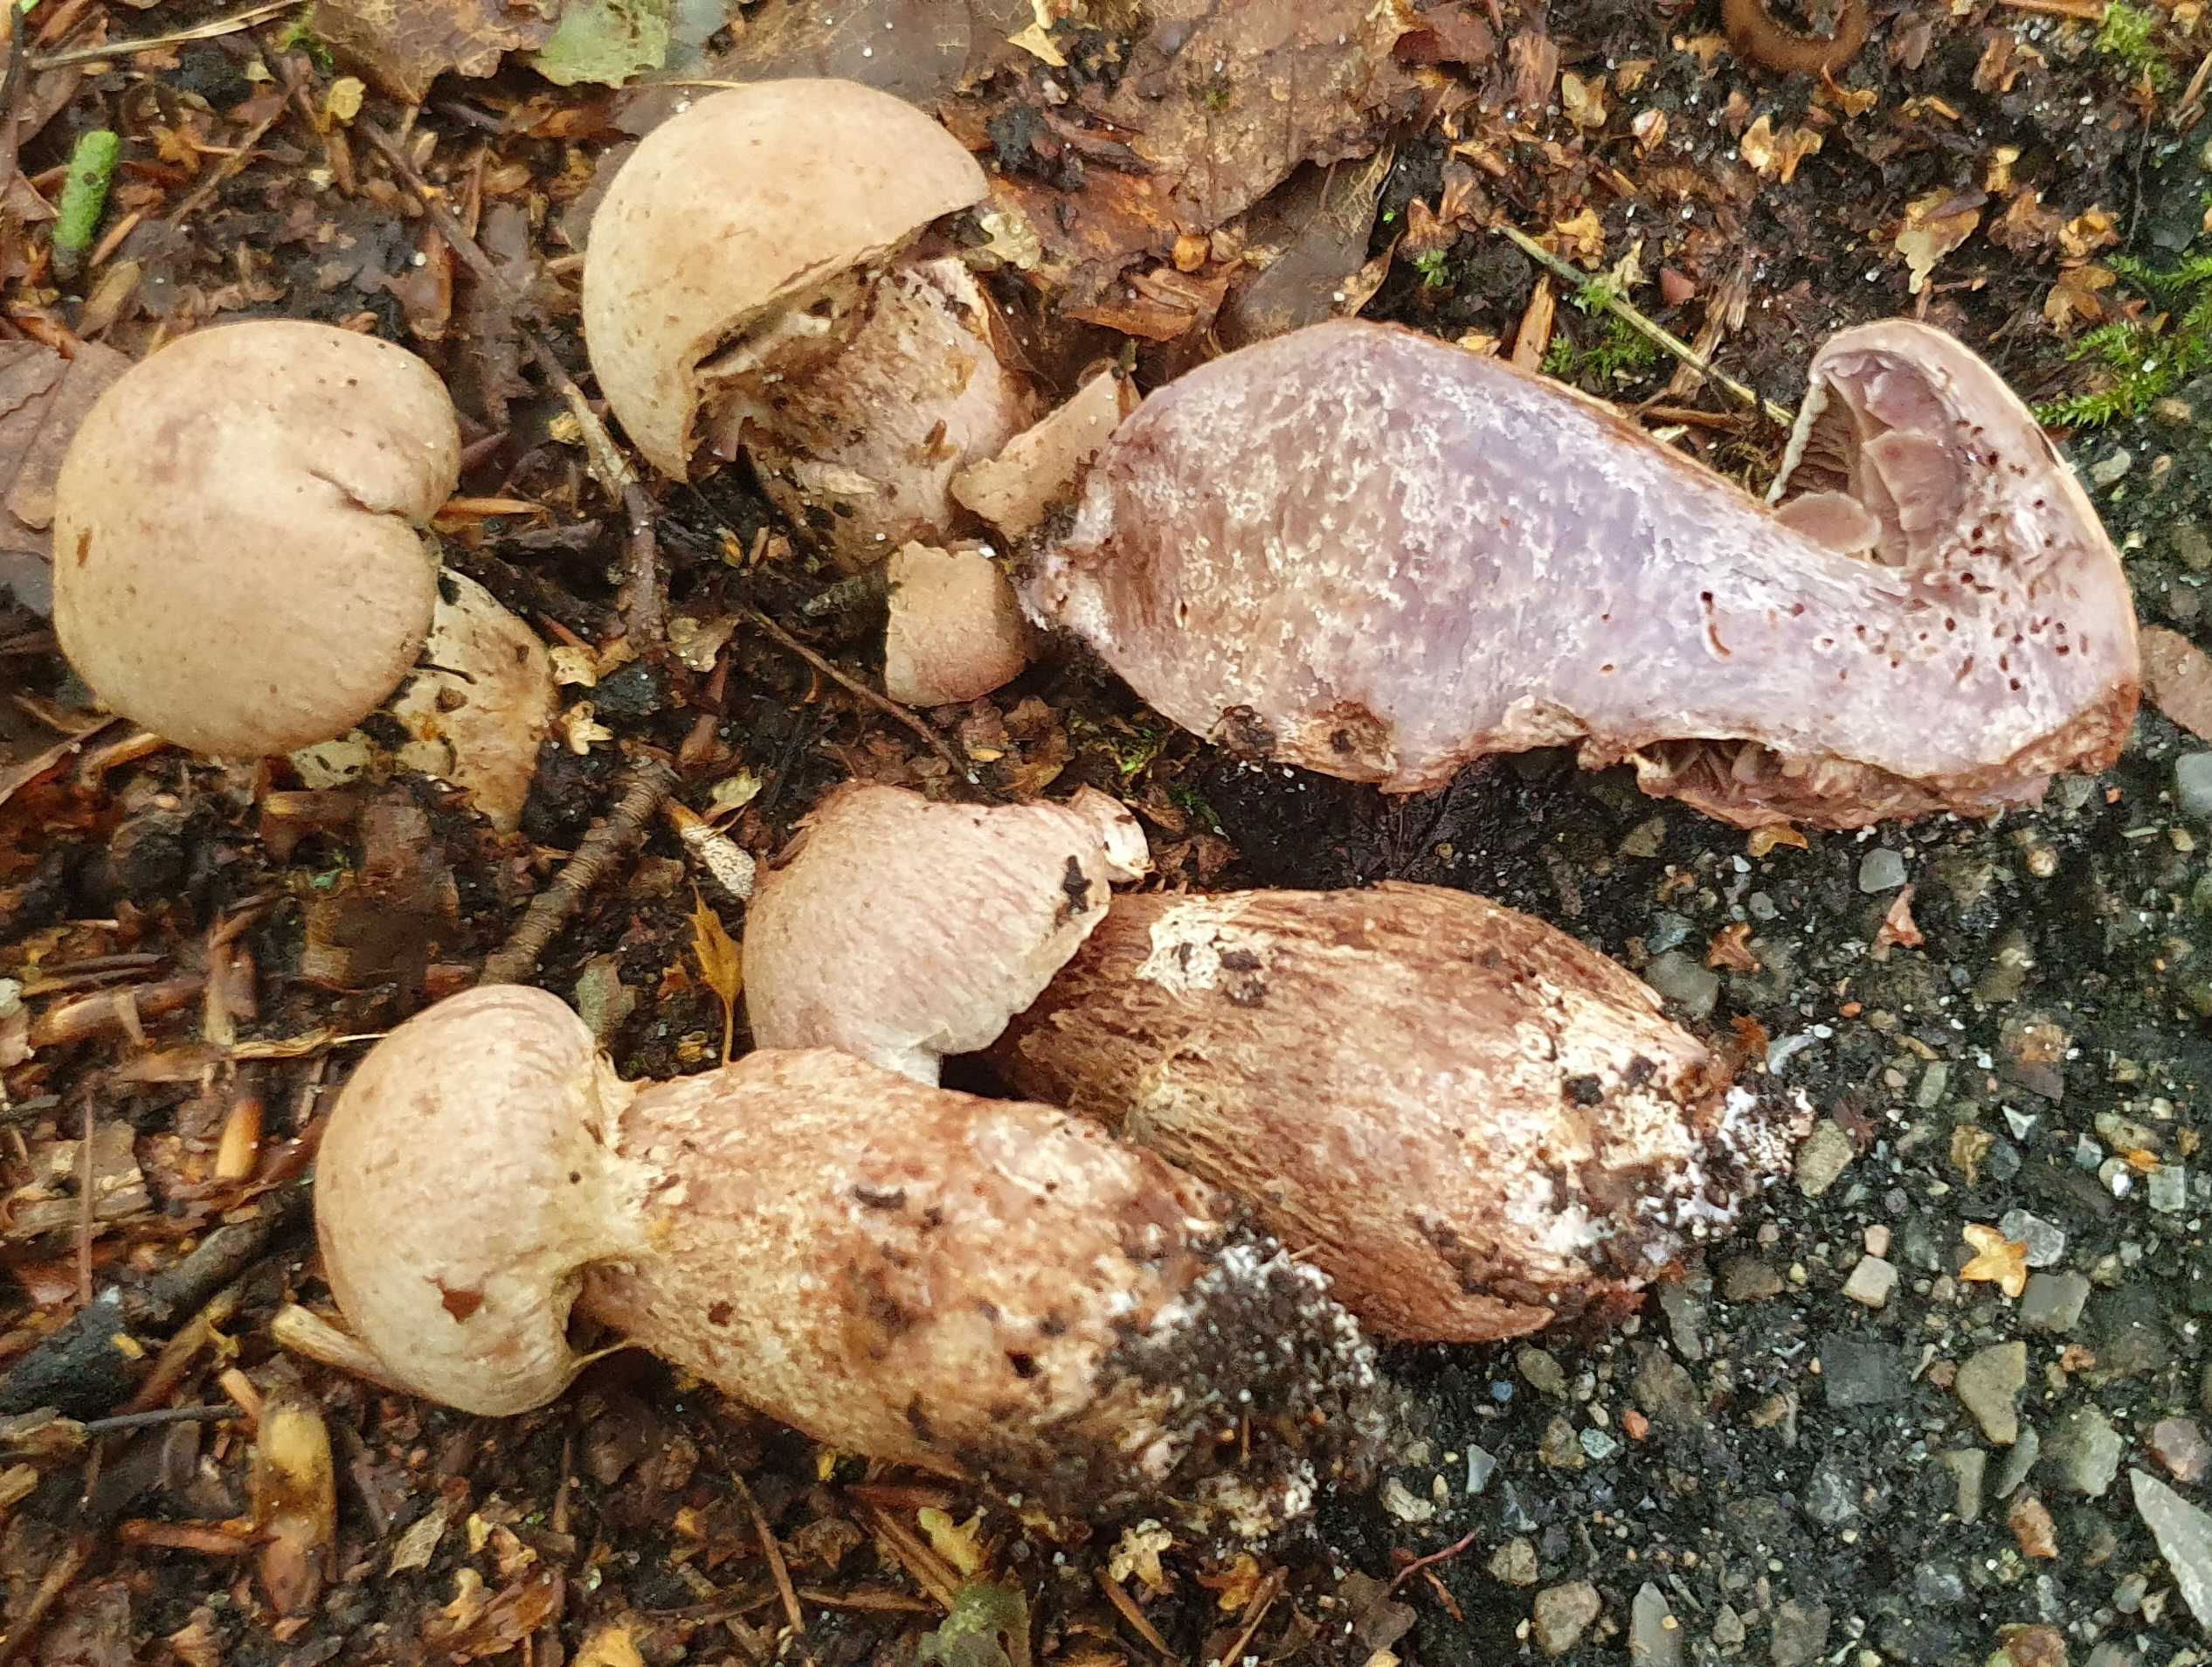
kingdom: Fungi
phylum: Basidiomycota
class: Agaricomycetes
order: Agaricales
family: Cortinariaceae
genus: Cortinarius
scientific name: Cortinarius torvus
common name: champignonagtig slørhat
